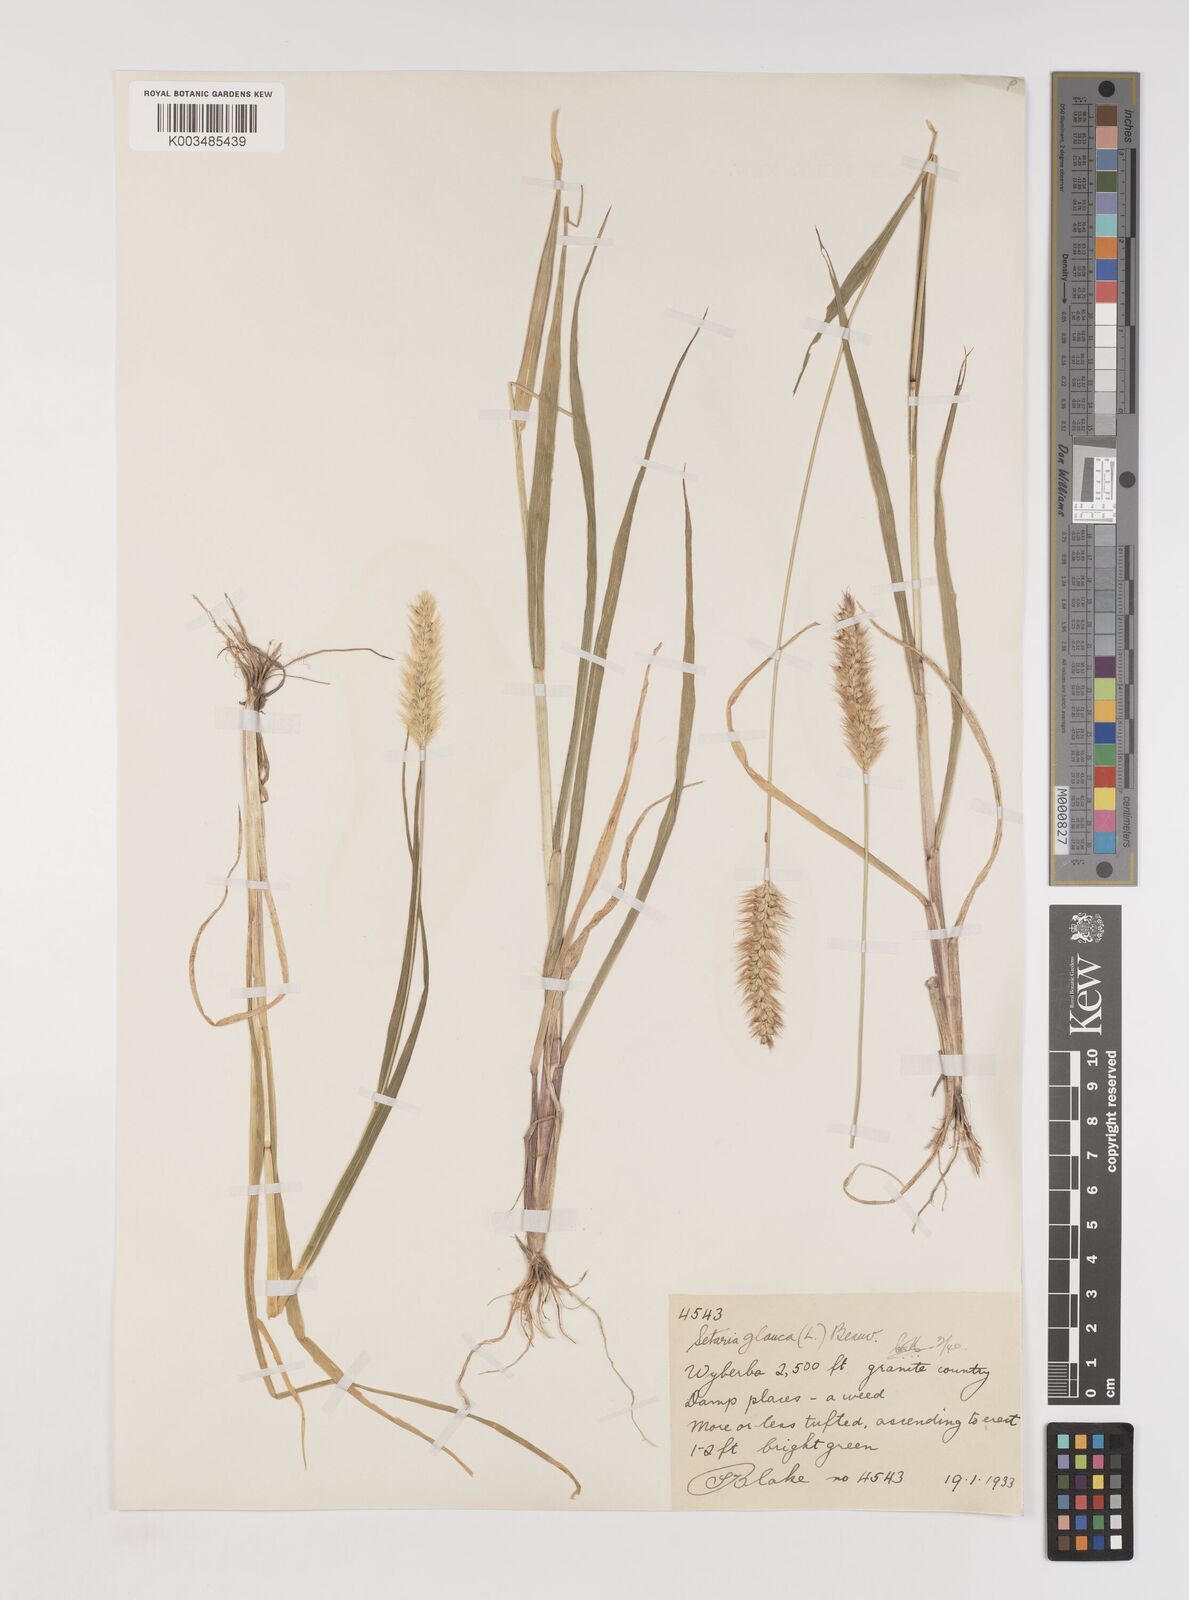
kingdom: Plantae
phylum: Tracheophyta
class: Liliopsida
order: Poales
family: Poaceae
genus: Setaria
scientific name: Setaria pumila
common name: Yellow bristle-grass
